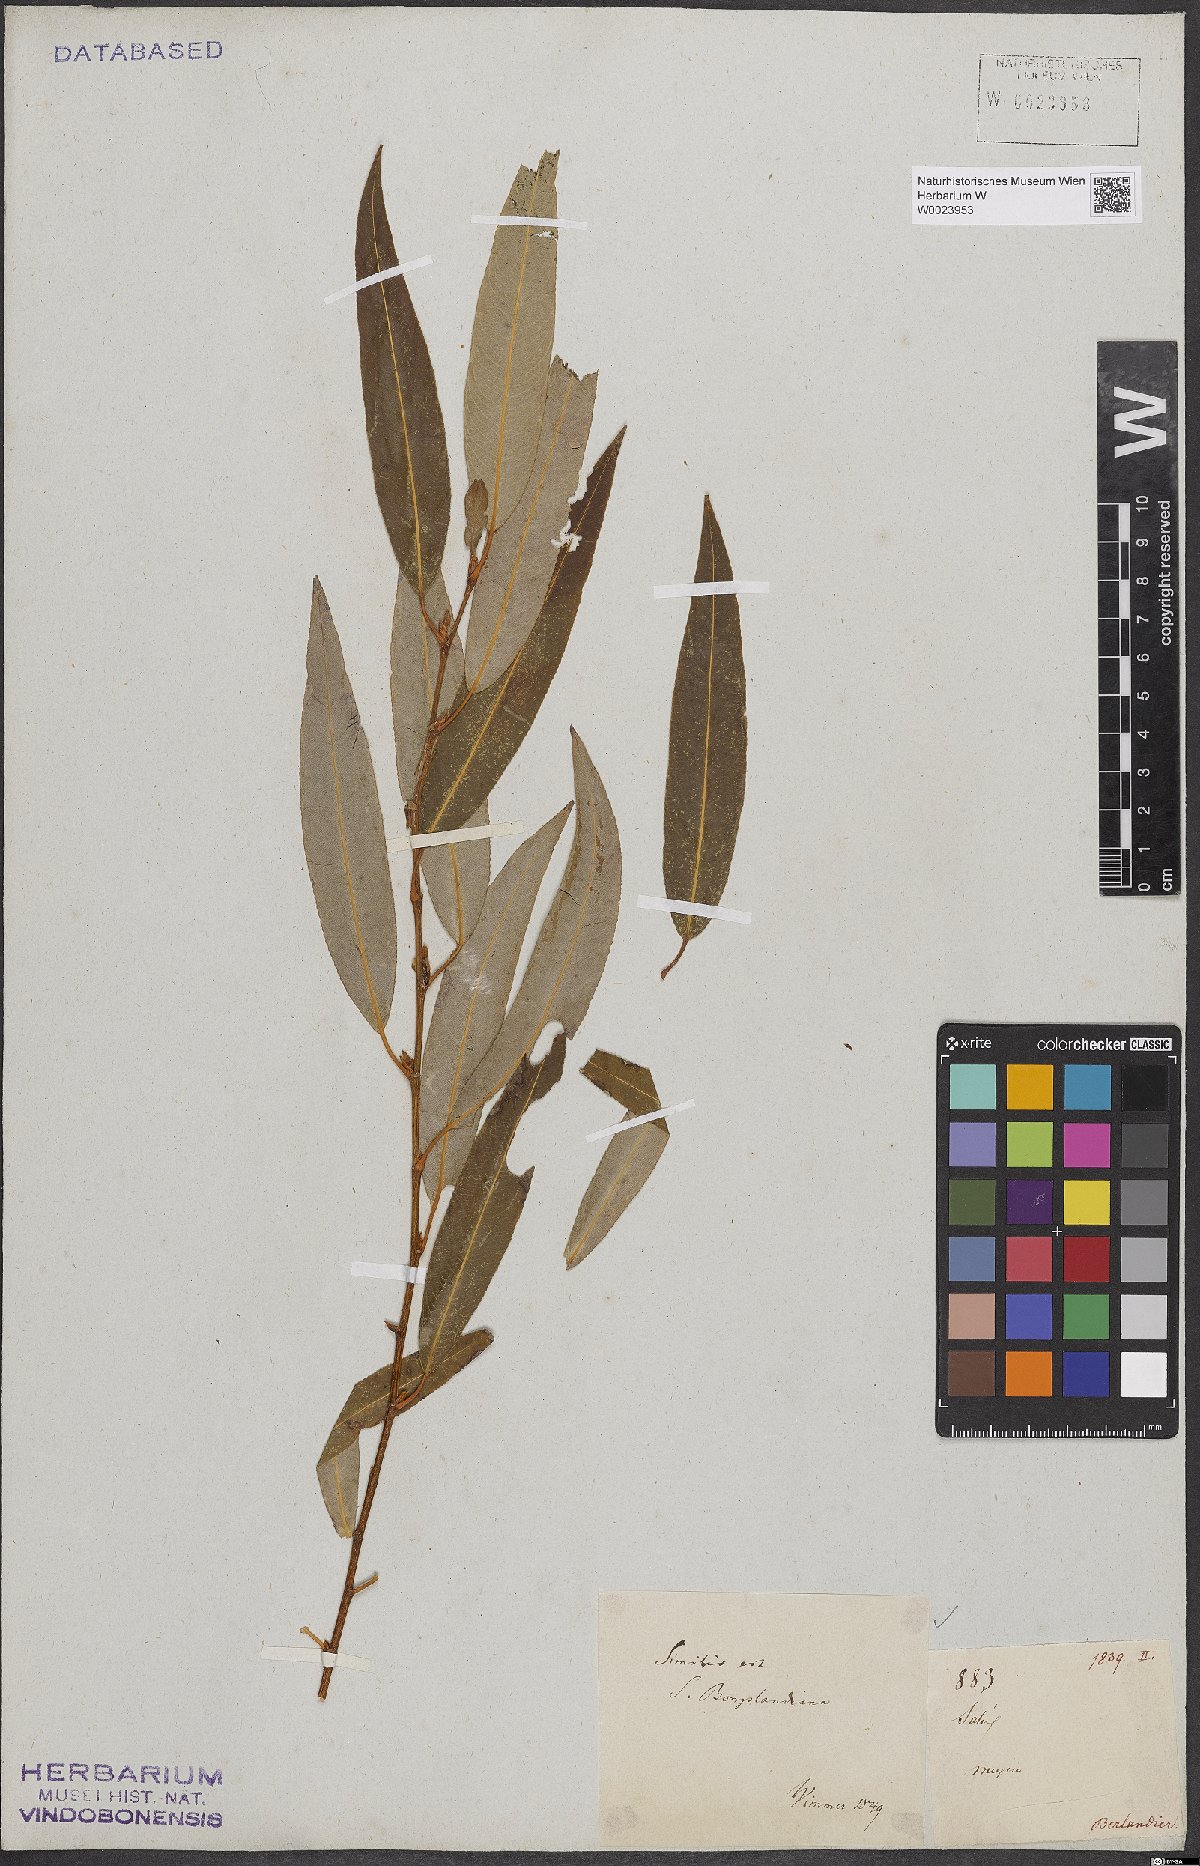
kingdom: Plantae
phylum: Tracheophyta
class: Magnoliopsida
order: Malpighiales
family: Salicaceae
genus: Salix
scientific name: Salix bonplandiana
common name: Bonpland’s willow
